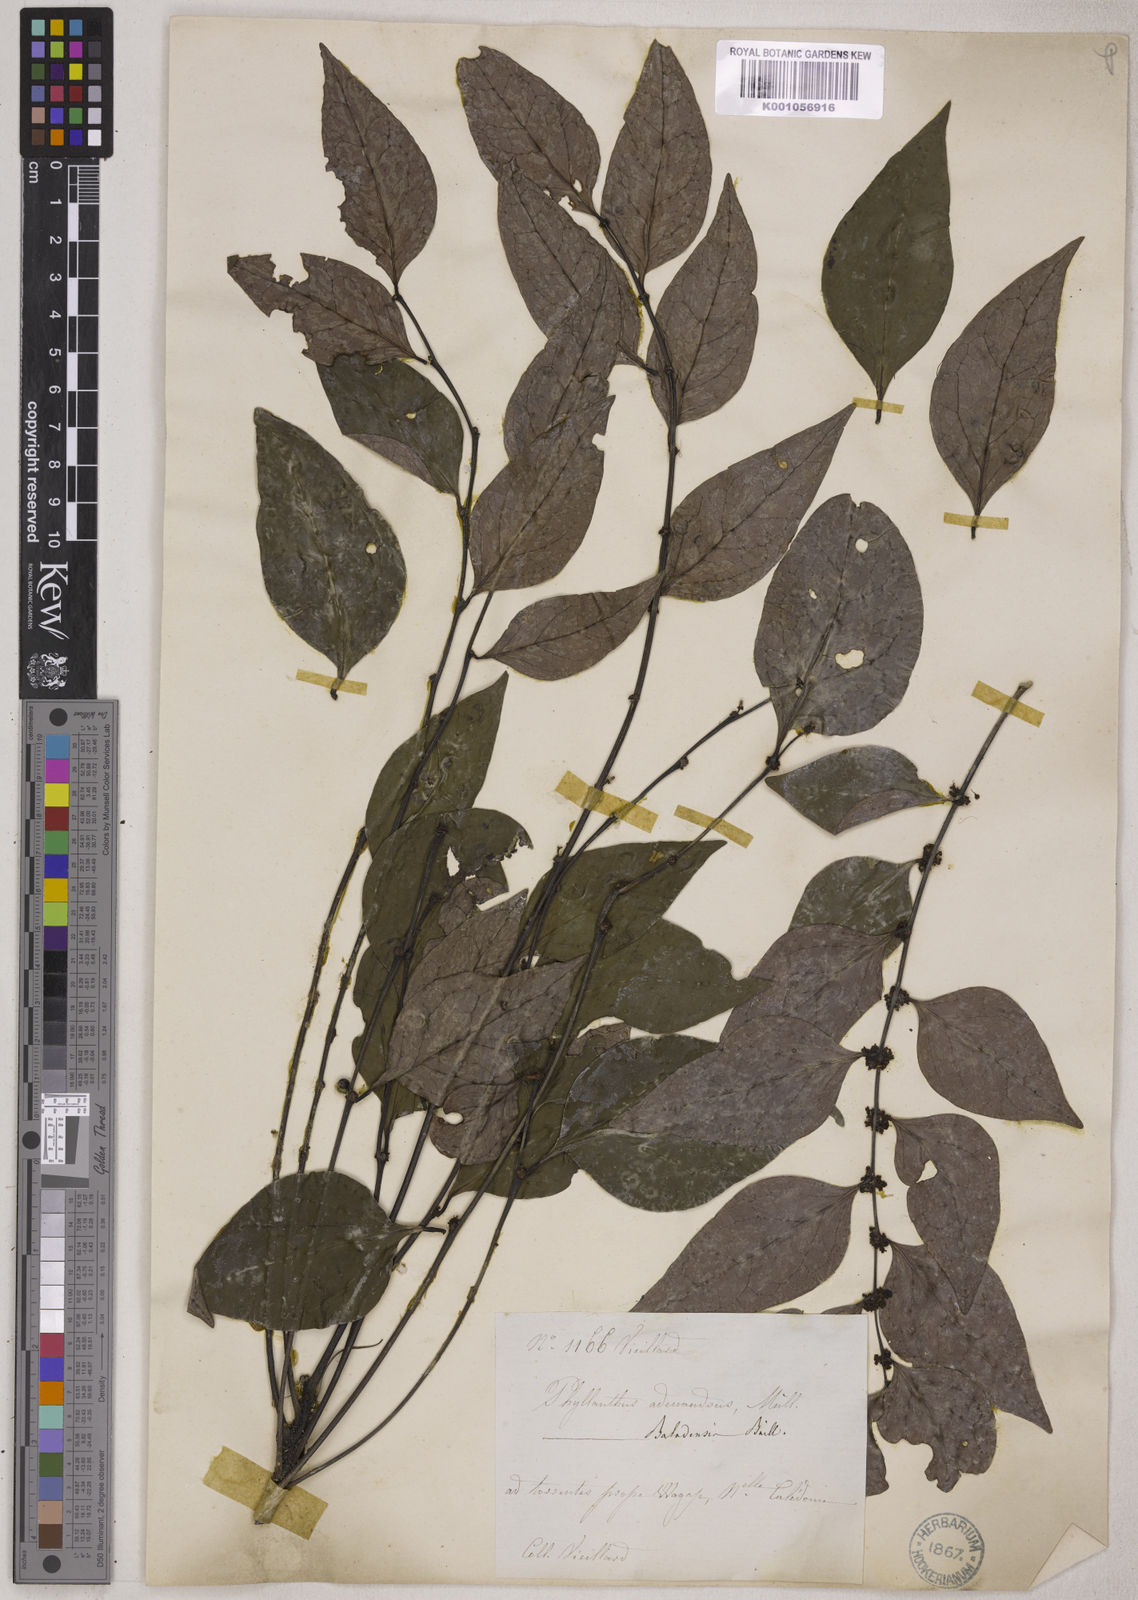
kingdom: Plantae
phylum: Tracheophyta
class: Magnoliopsida
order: Malpighiales
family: Phyllanthaceae
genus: Phyllanthus
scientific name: Phyllanthus baladensis
